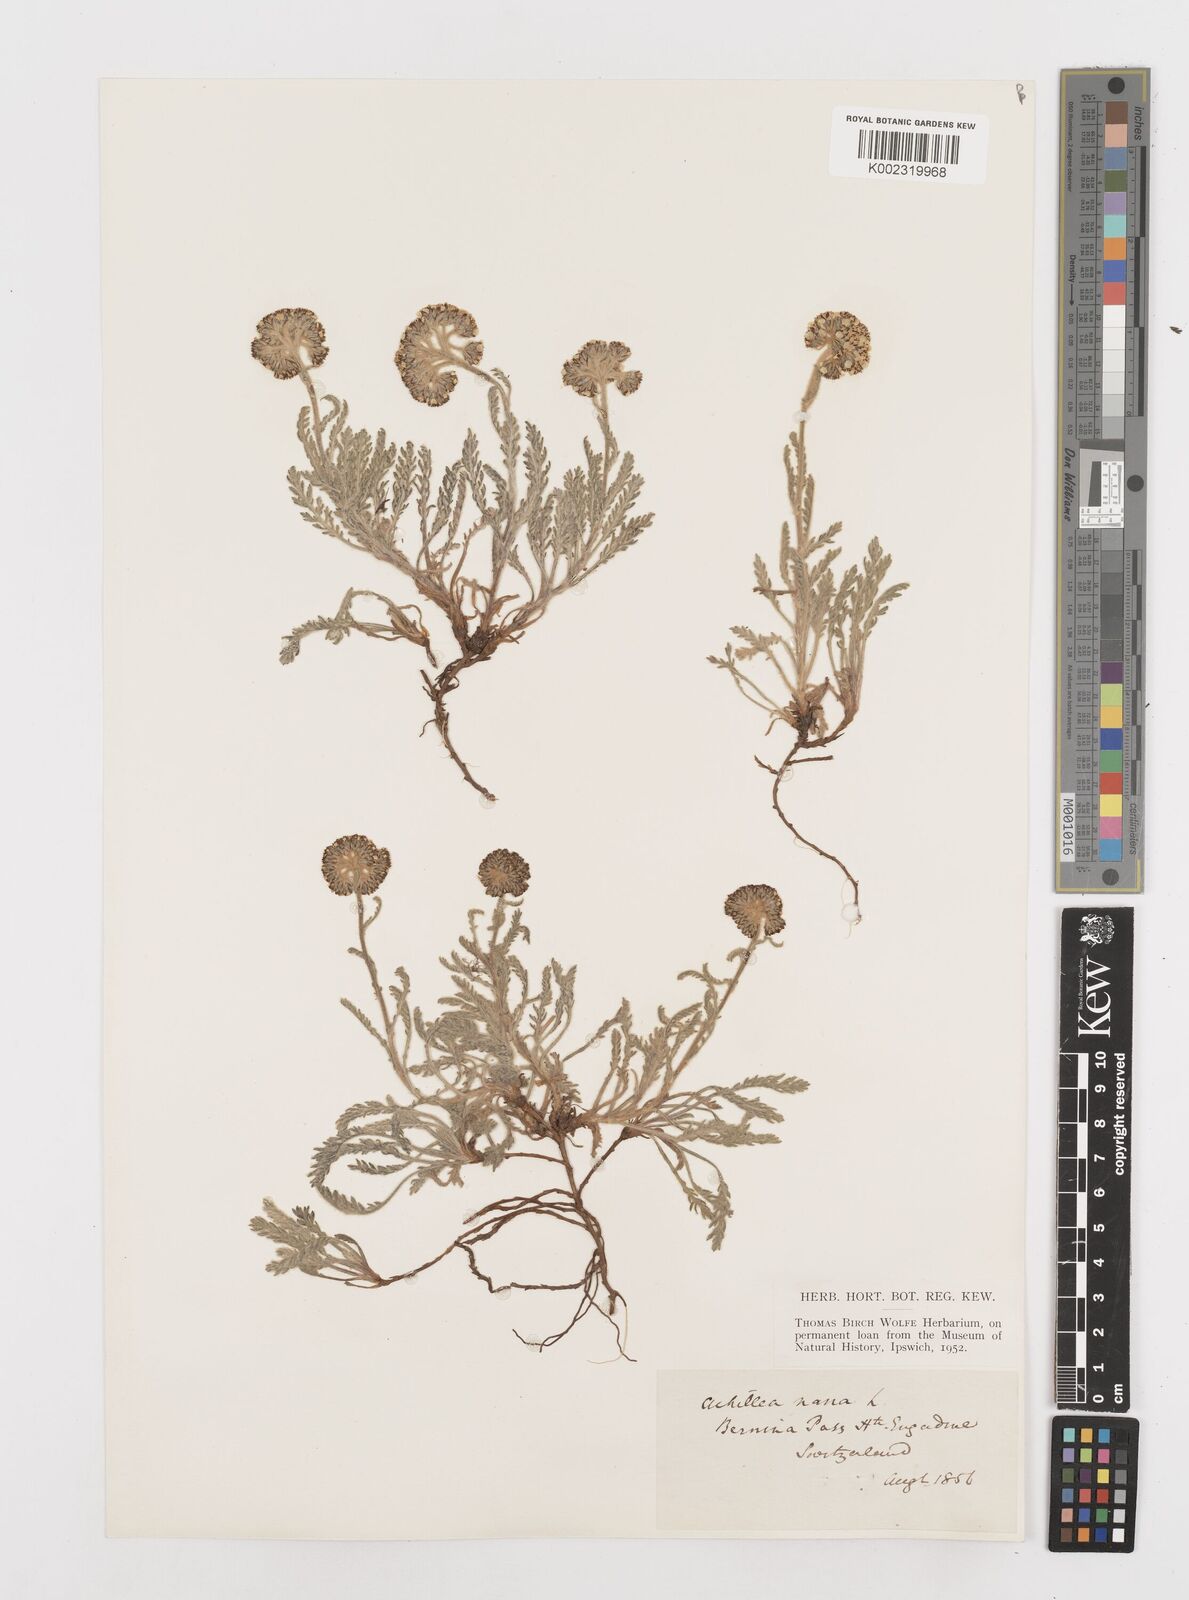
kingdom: Plantae
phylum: Tracheophyta
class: Magnoliopsida
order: Asterales
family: Asteraceae
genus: Achillea
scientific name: Achillea erba-rotta
